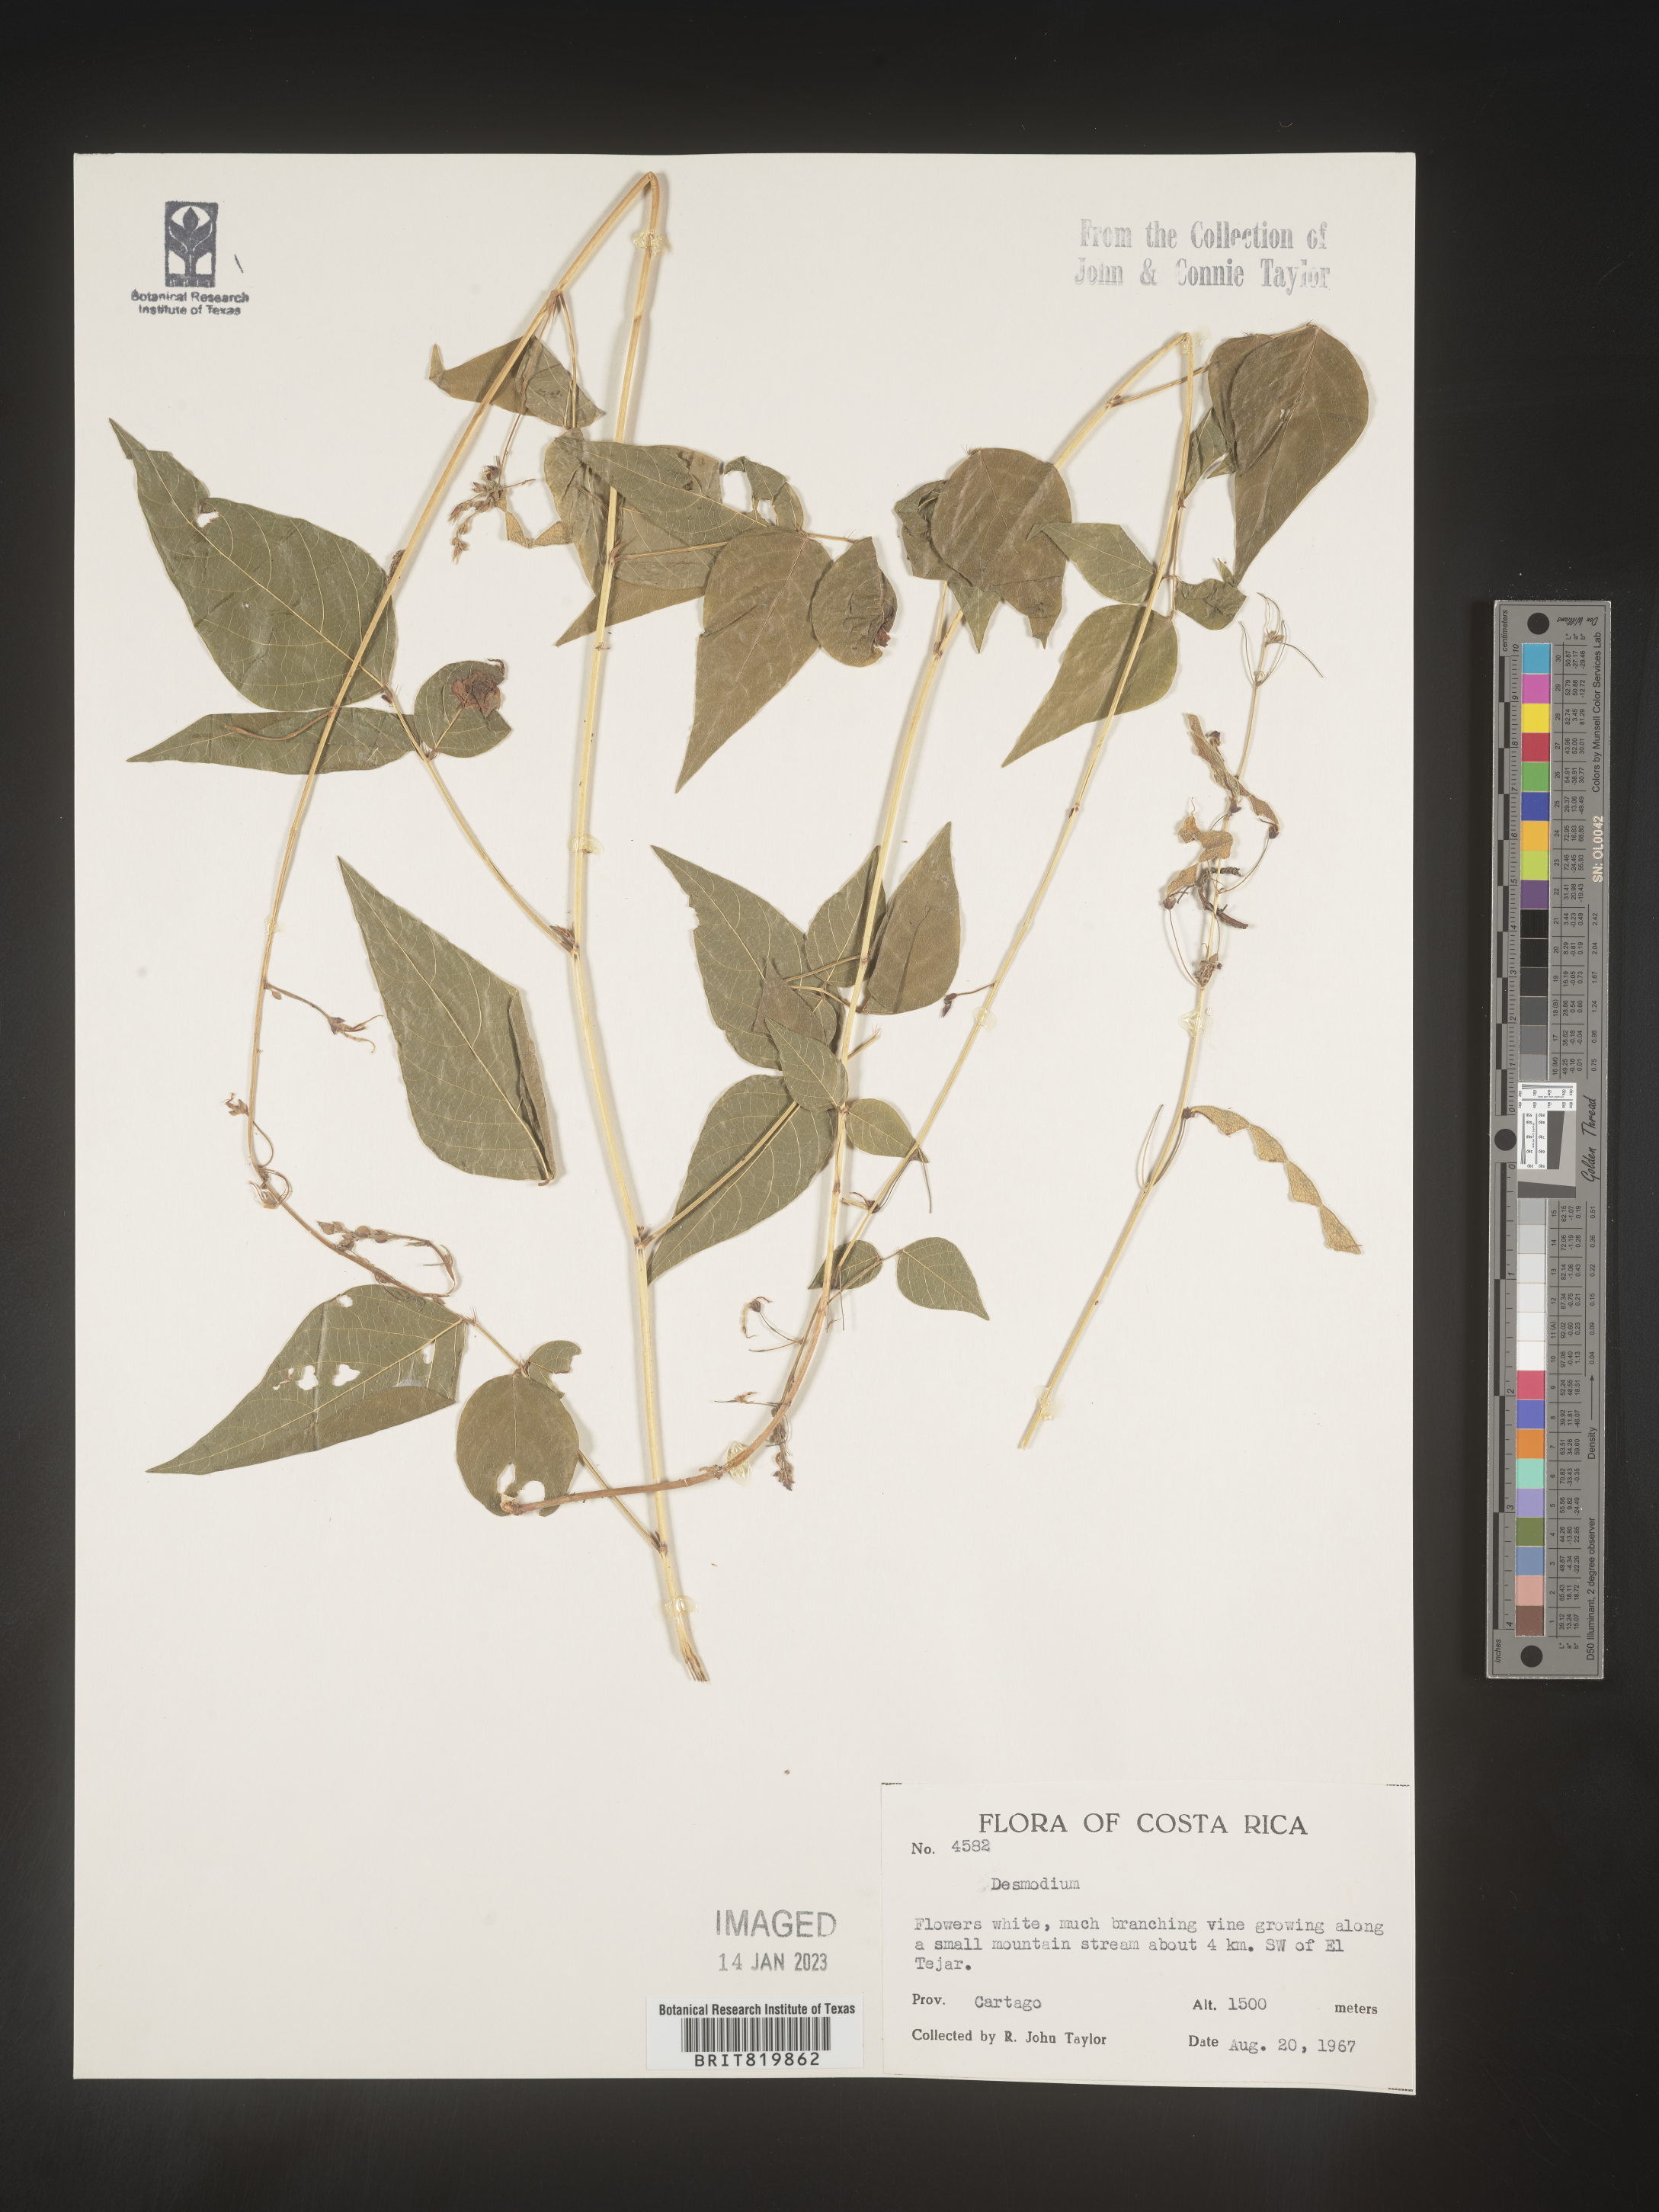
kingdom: Plantae
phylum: Tracheophyta
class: Magnoliopsida
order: Fabales
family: Fabaceae
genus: Desmodium
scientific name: Desmodium
